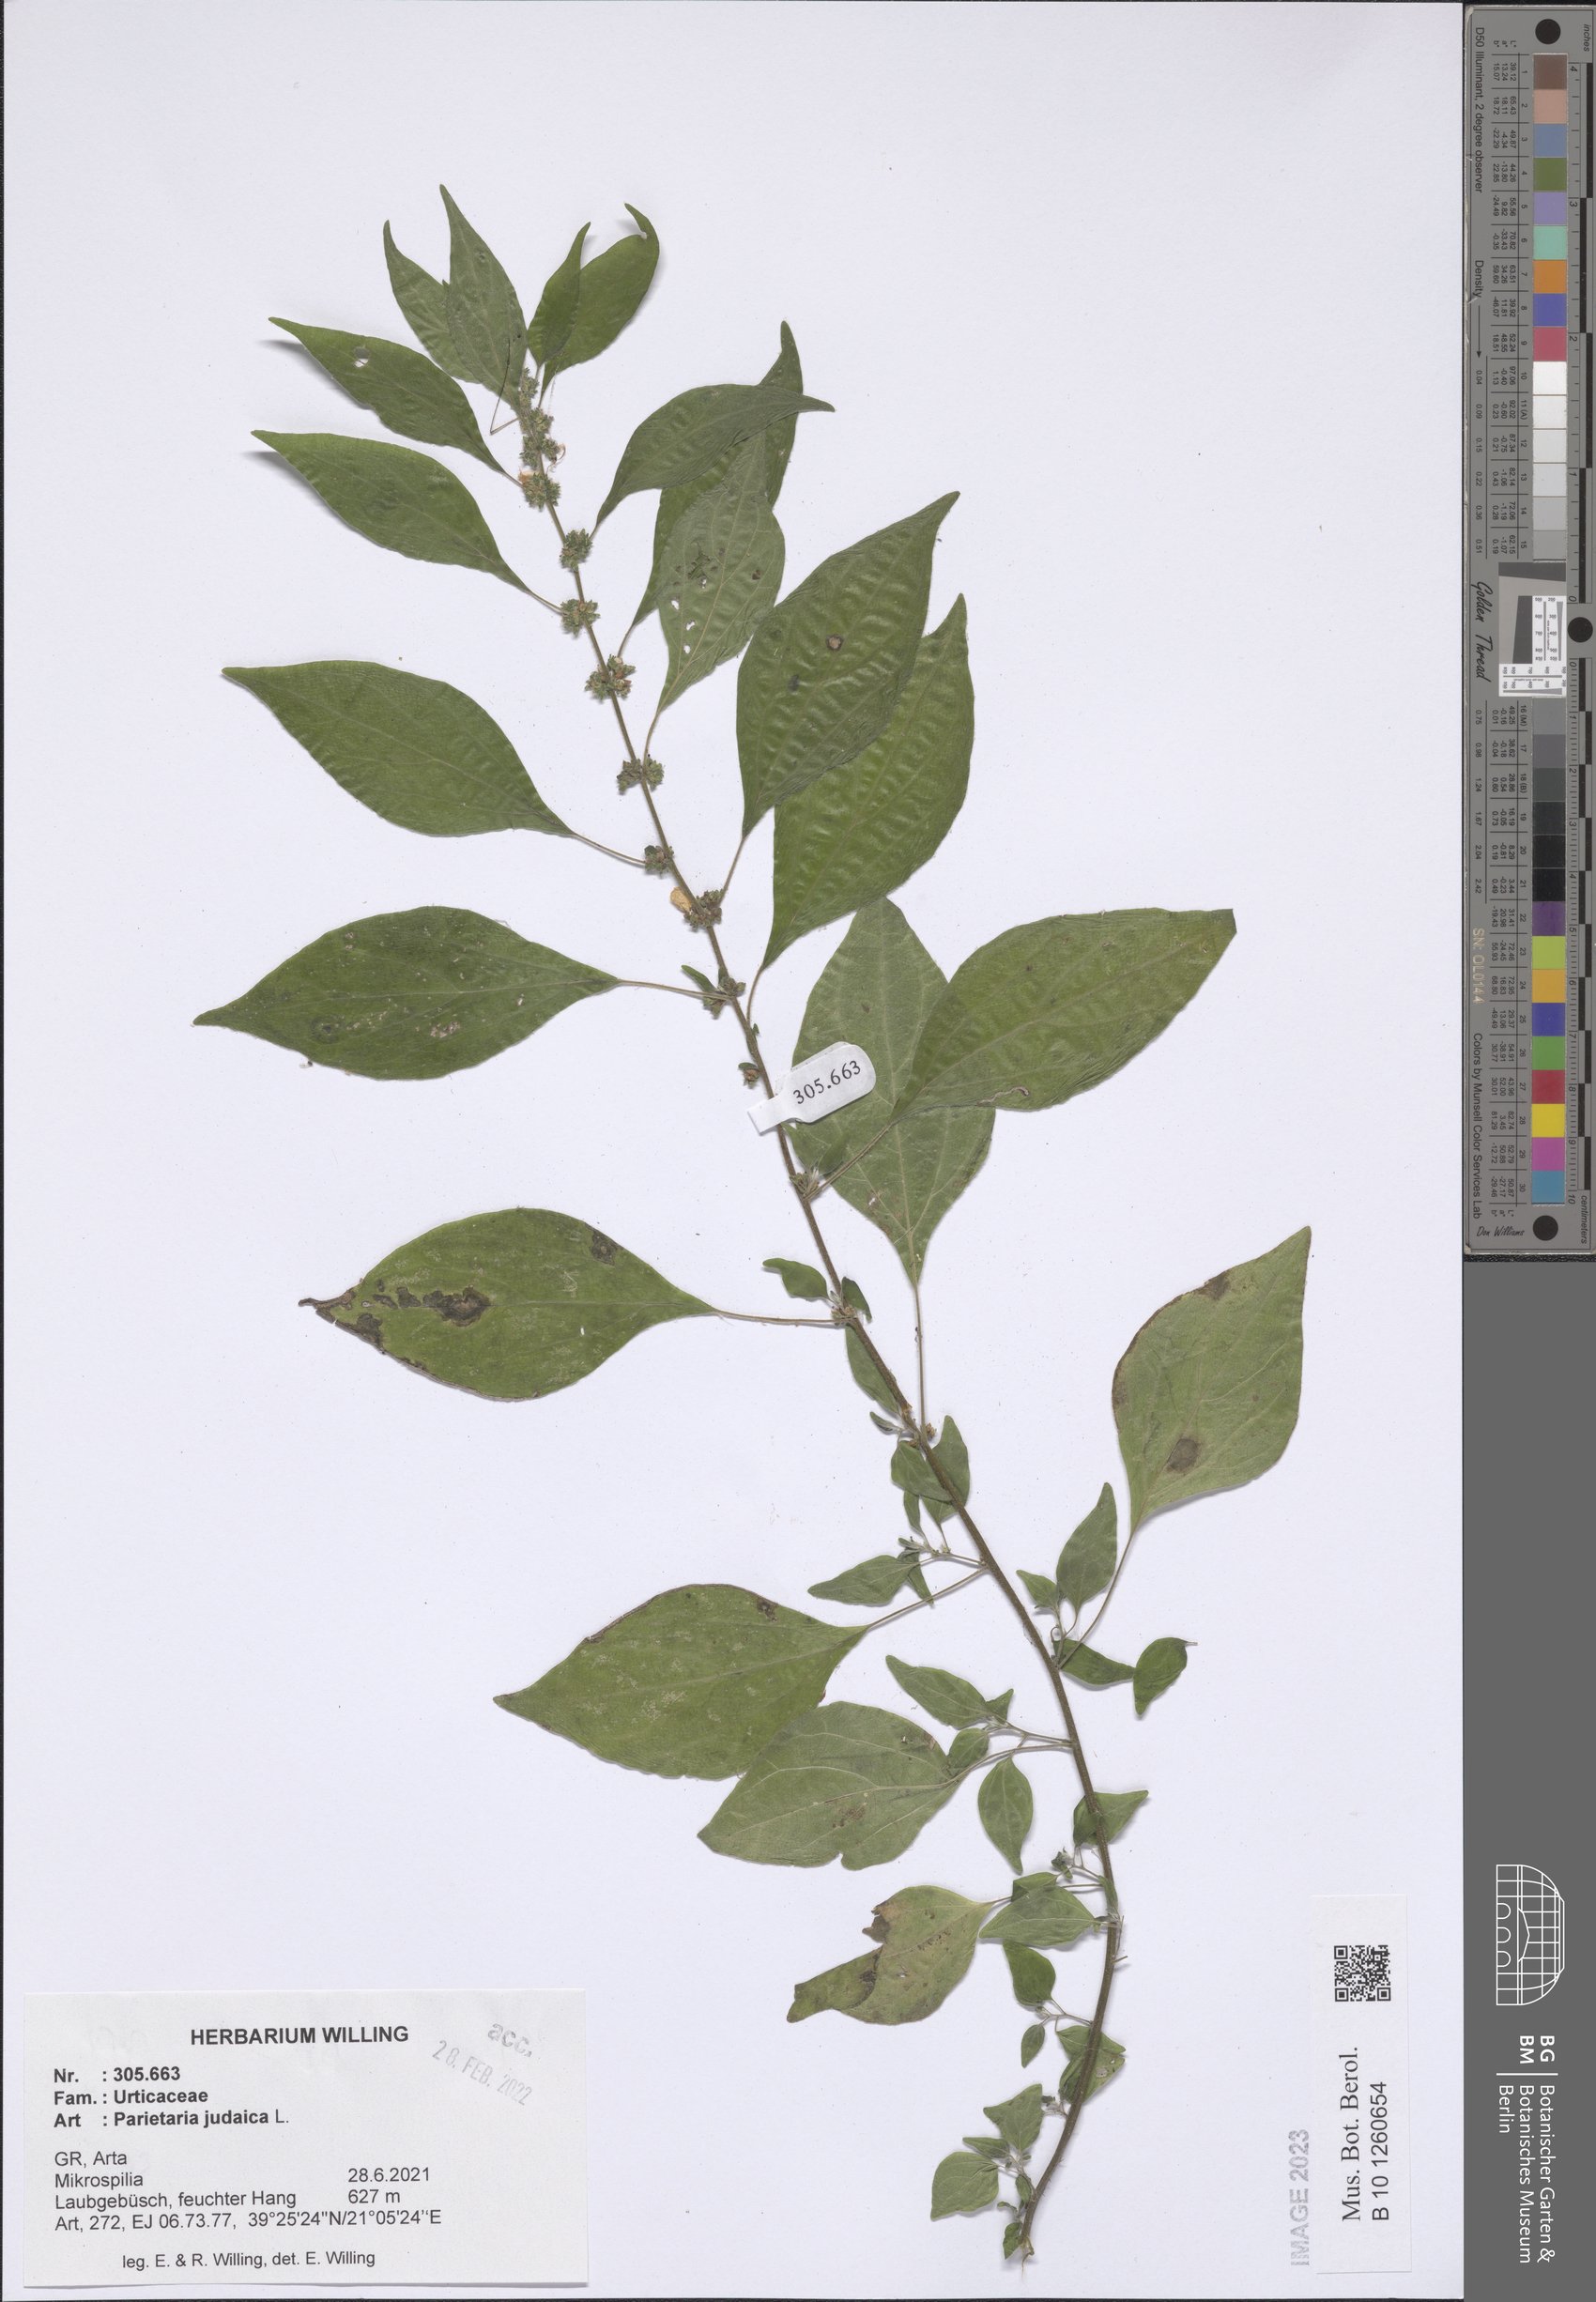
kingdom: Plantae
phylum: Tracheophyta
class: Magnoliopsida
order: Rosales
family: Urticaceae
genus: Parietaria
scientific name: Parietaria judaica
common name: Pellitory-of-the-wall
